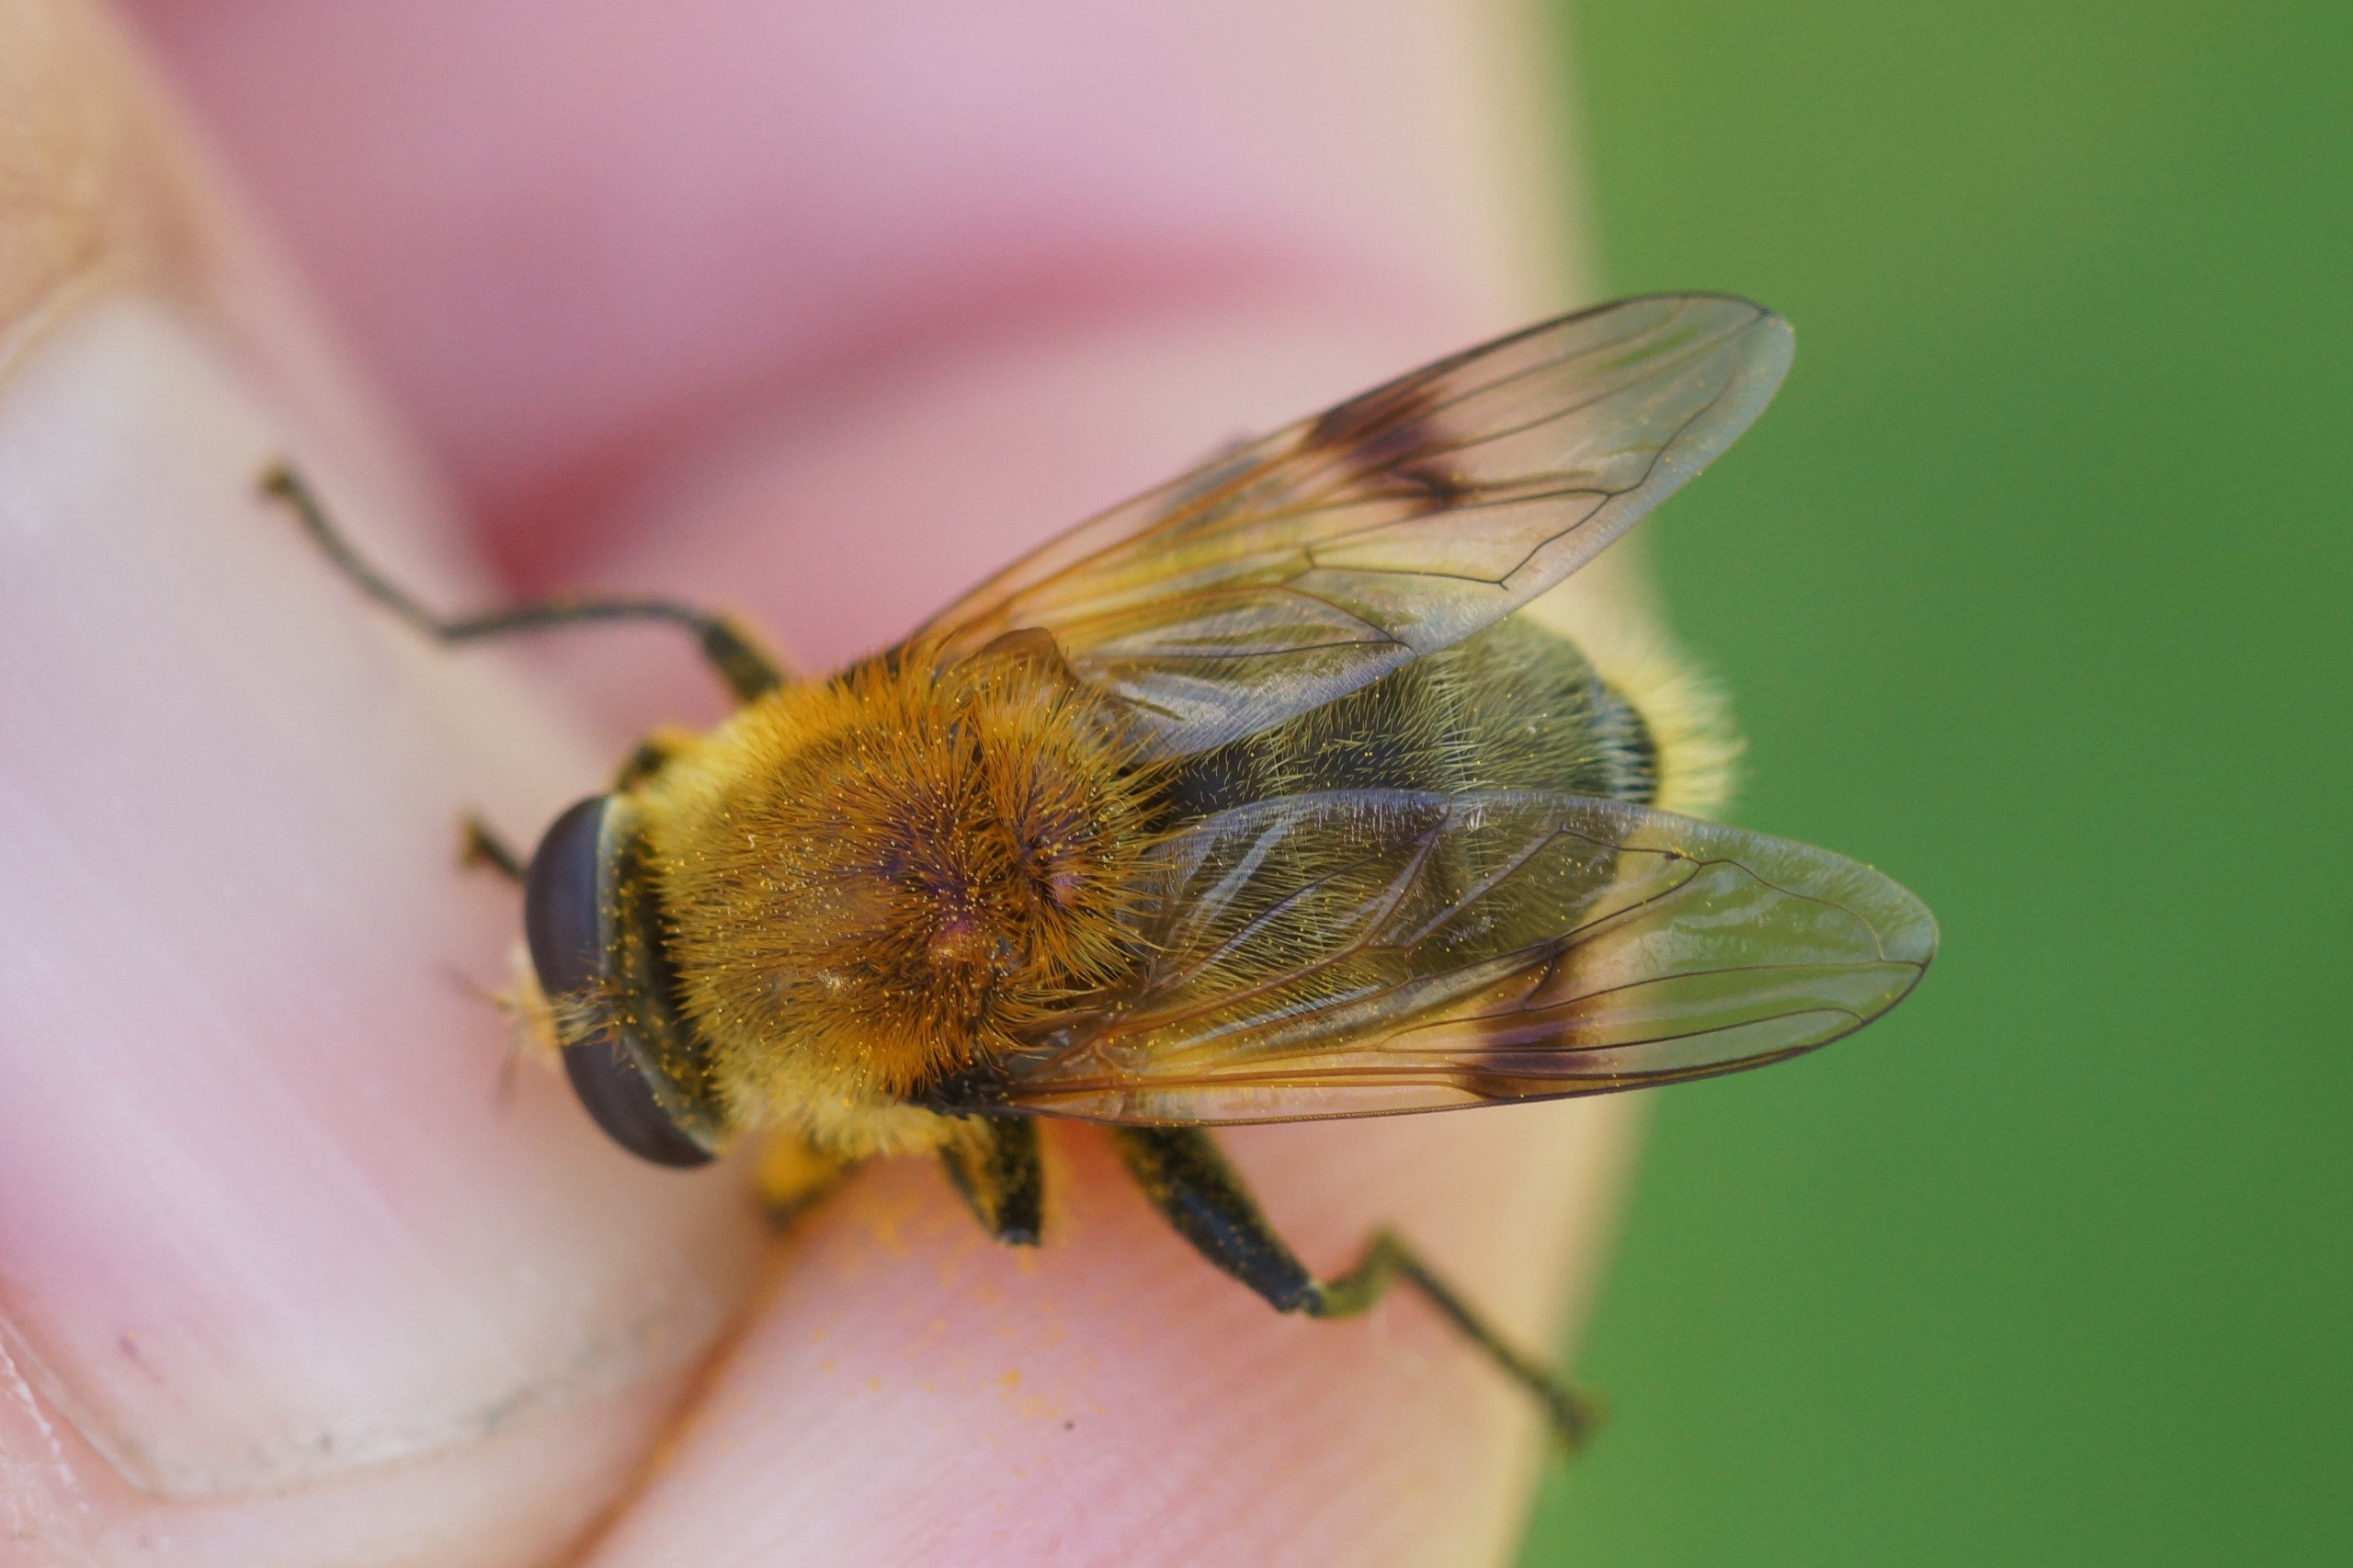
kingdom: Animalia
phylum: Arthropoda
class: Insecta
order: Diptera
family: Syrphidae
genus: Sericomyia
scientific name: Sericomyia superbiens
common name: Brun bjørnesvirreflue
